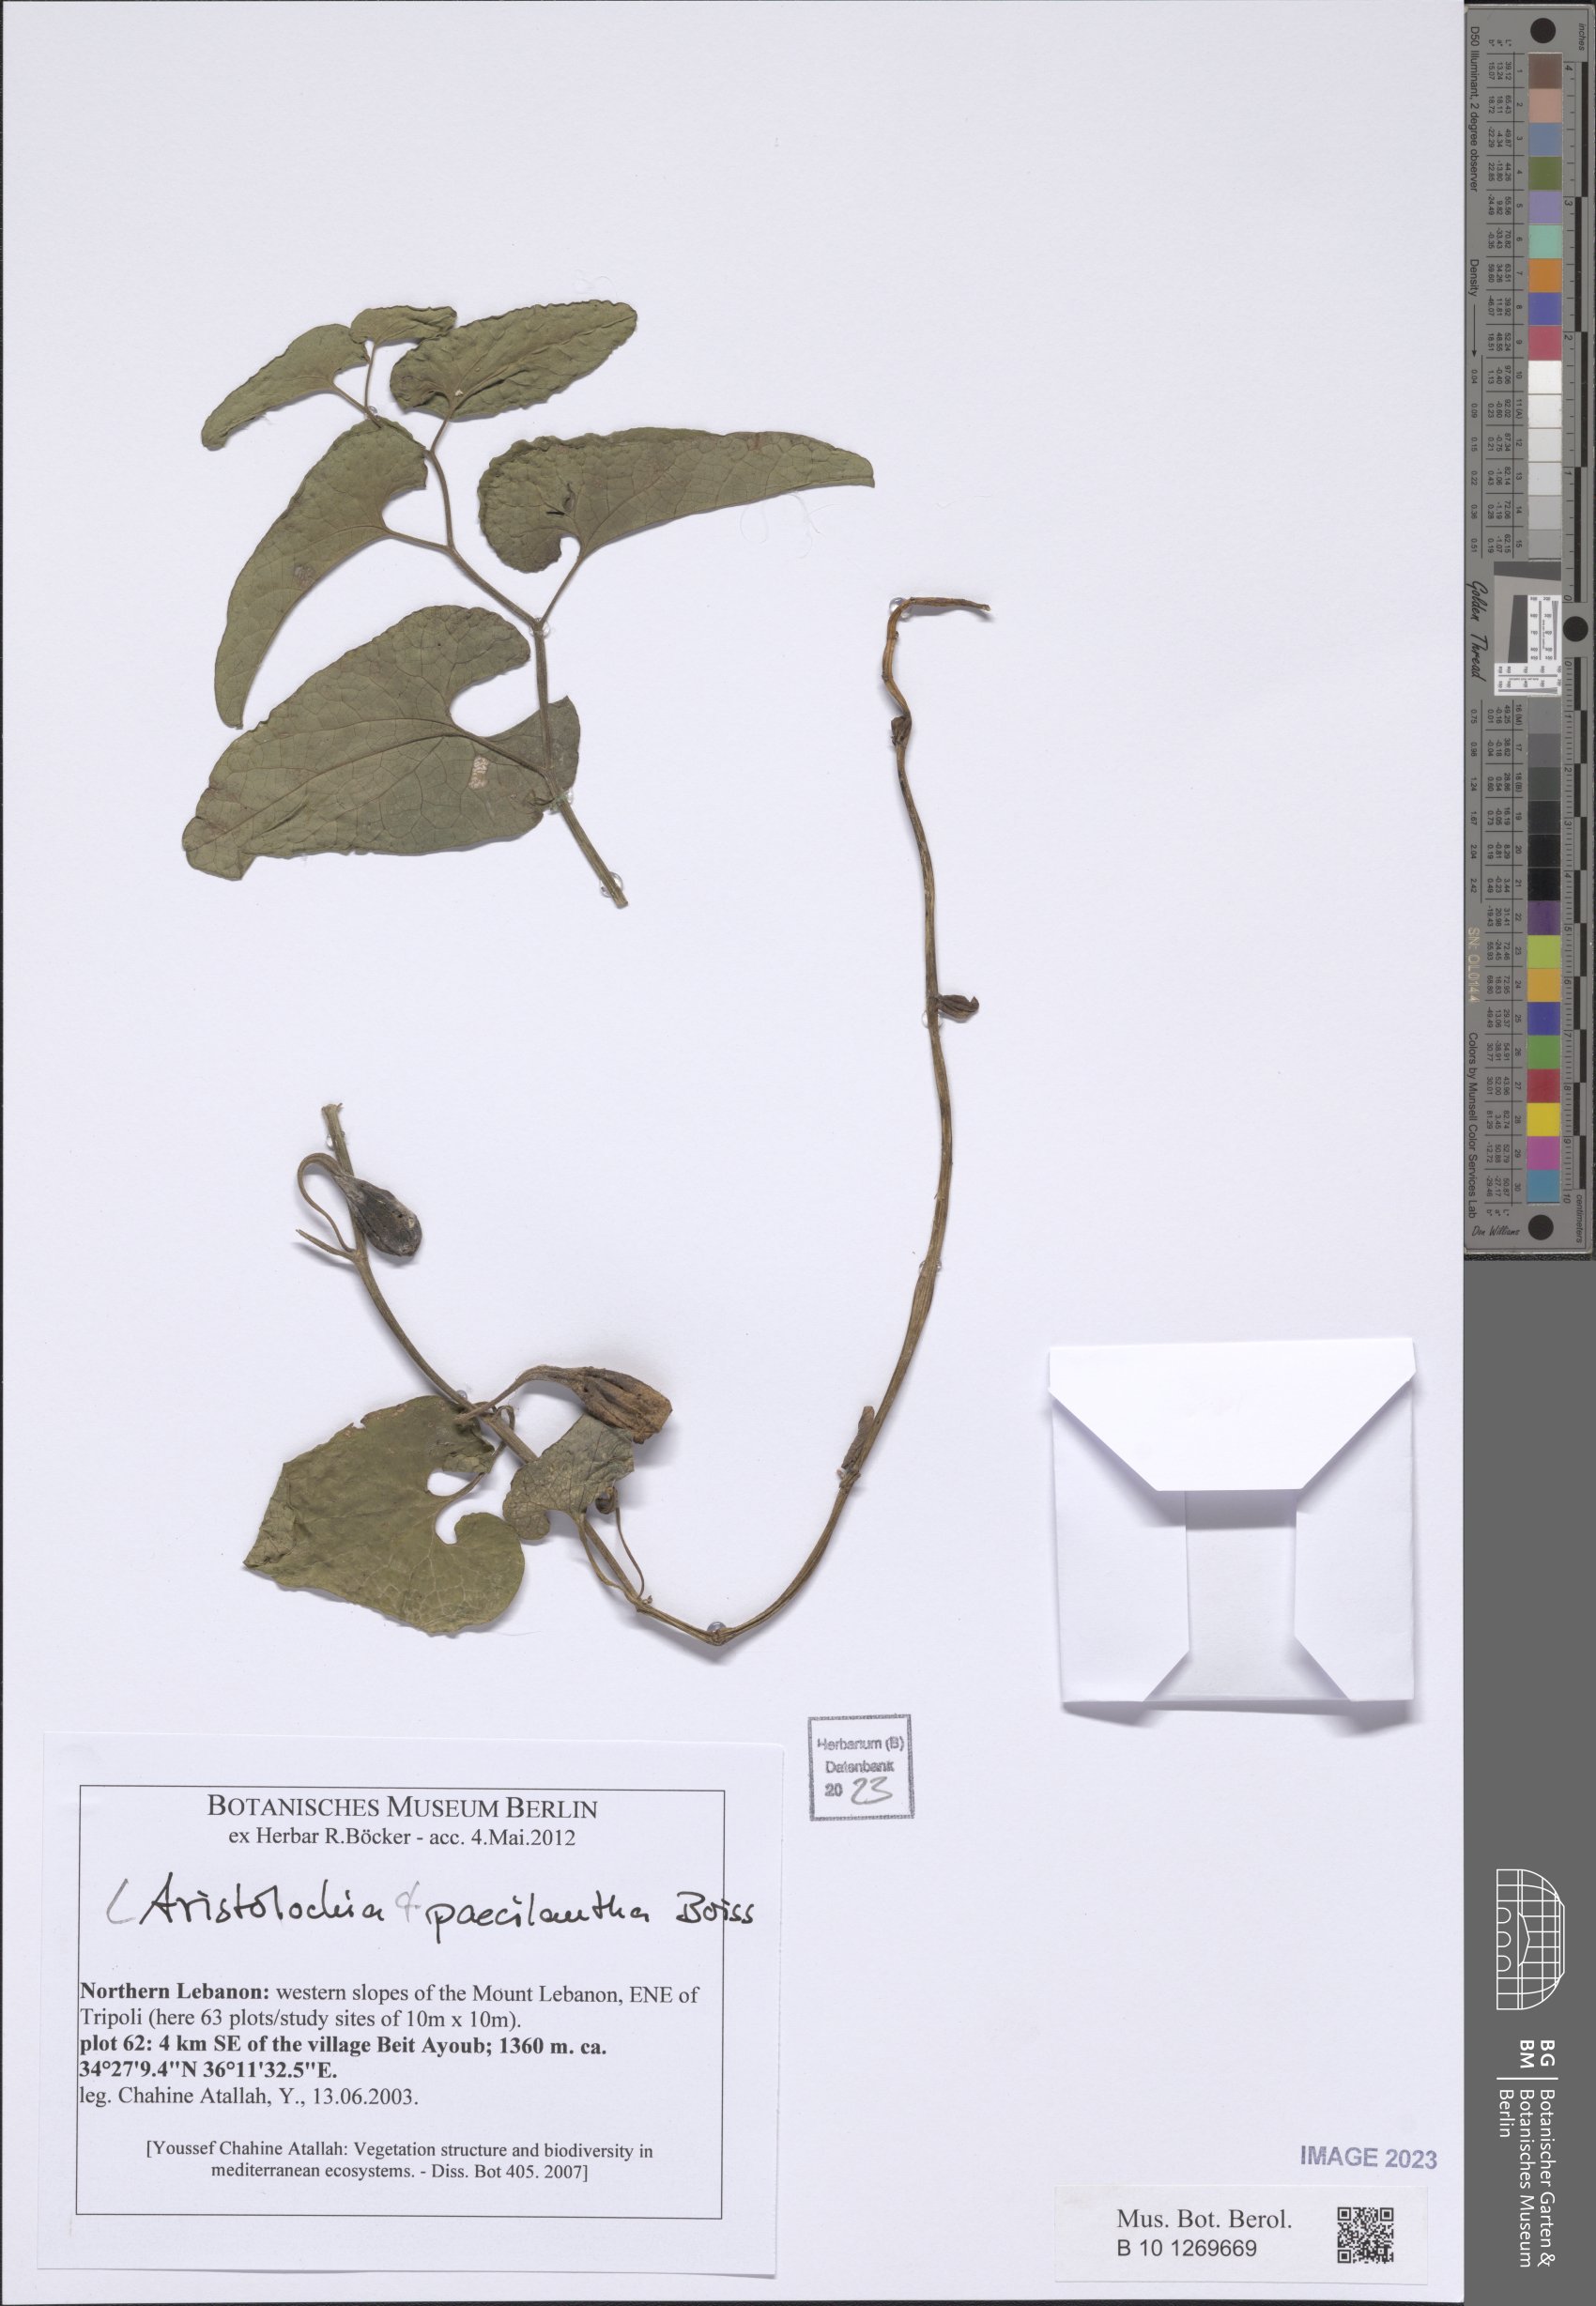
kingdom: Plantae
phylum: Tracheophyta
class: Magnoliopsida
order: Piperales
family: Aristolochiaceae
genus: Aristolochia
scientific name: Aristolochia paecilantha
